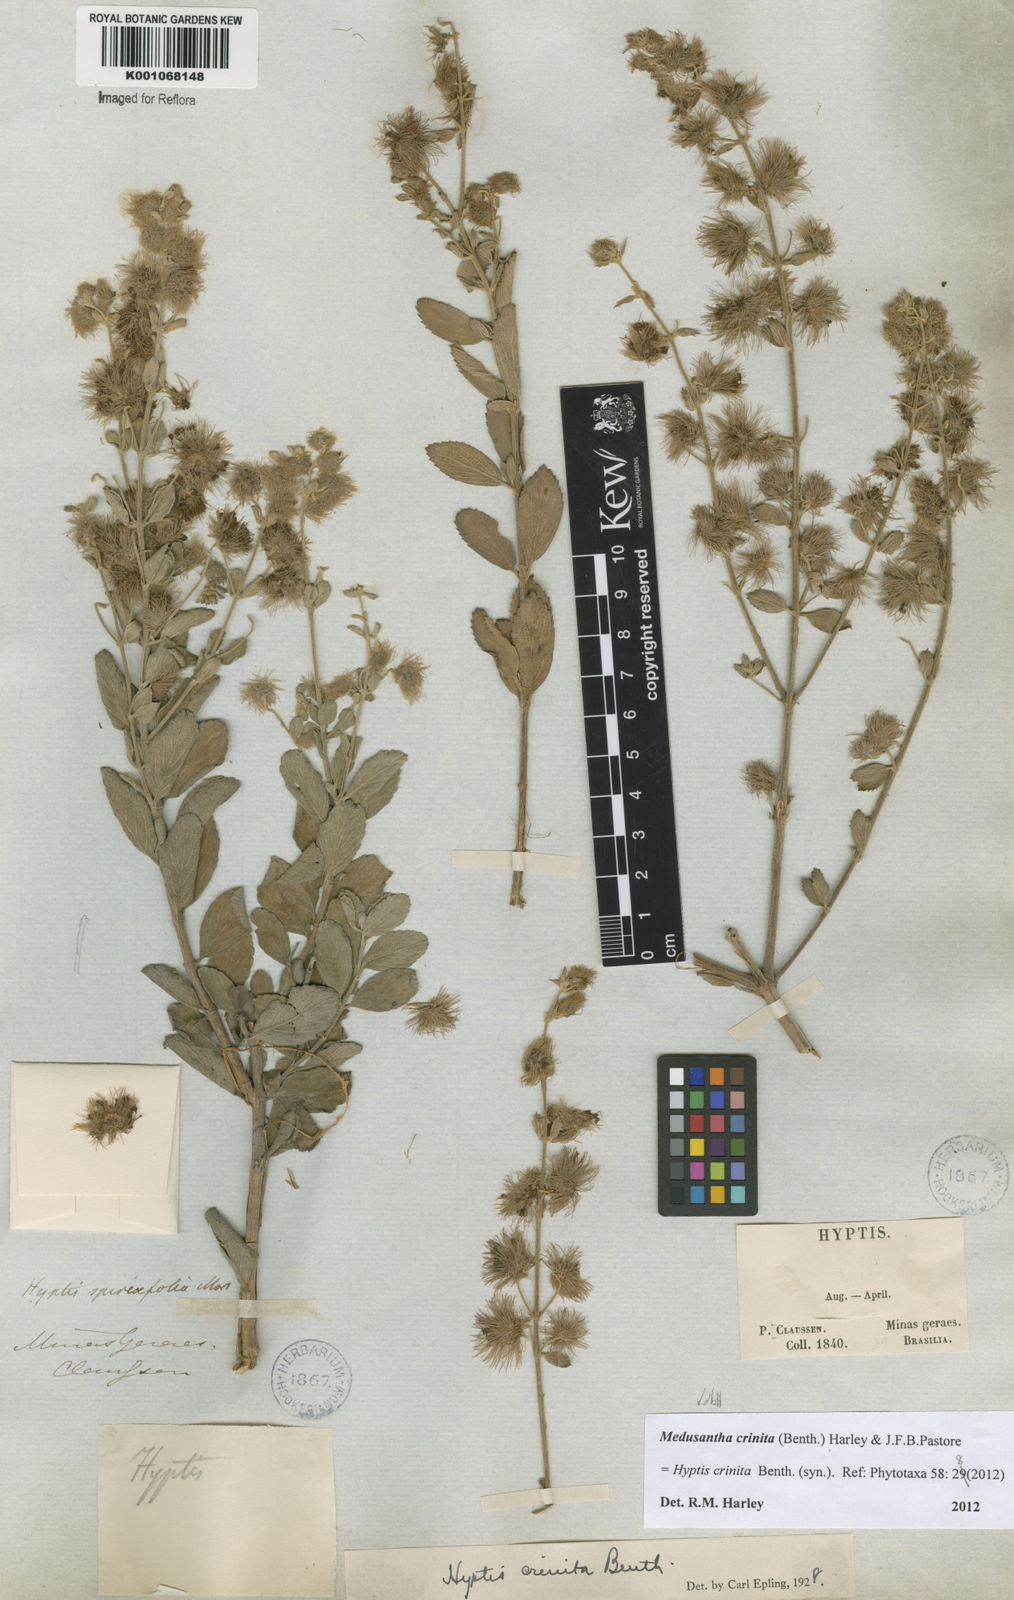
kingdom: Plantae
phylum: Tracheophyta
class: Magnoliopsida
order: Lamiales
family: Lamiaceae
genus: Medusantha
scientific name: Medusantha crinita
